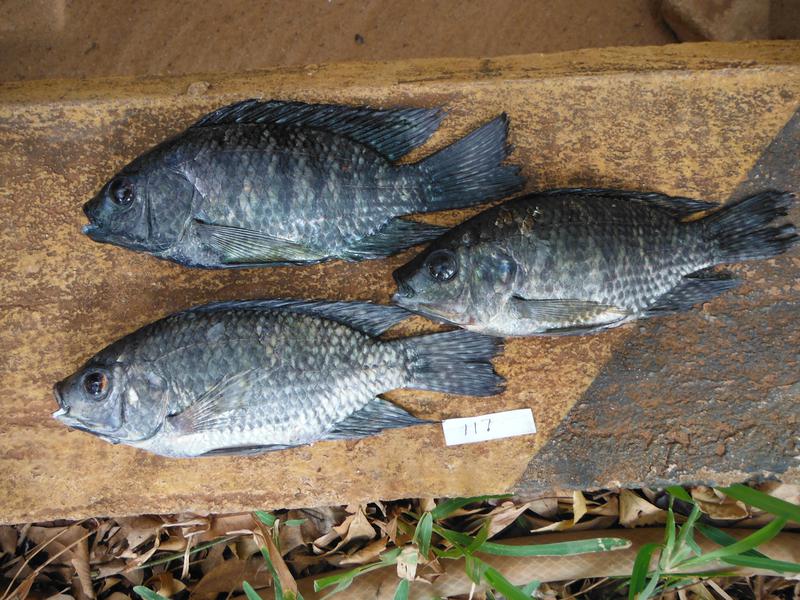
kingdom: Animalia
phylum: Chordata
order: Perciformes
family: Cichlidae
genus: Oreochromis
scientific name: Oreochromis leucostictus
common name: Blue spotted tilapia
